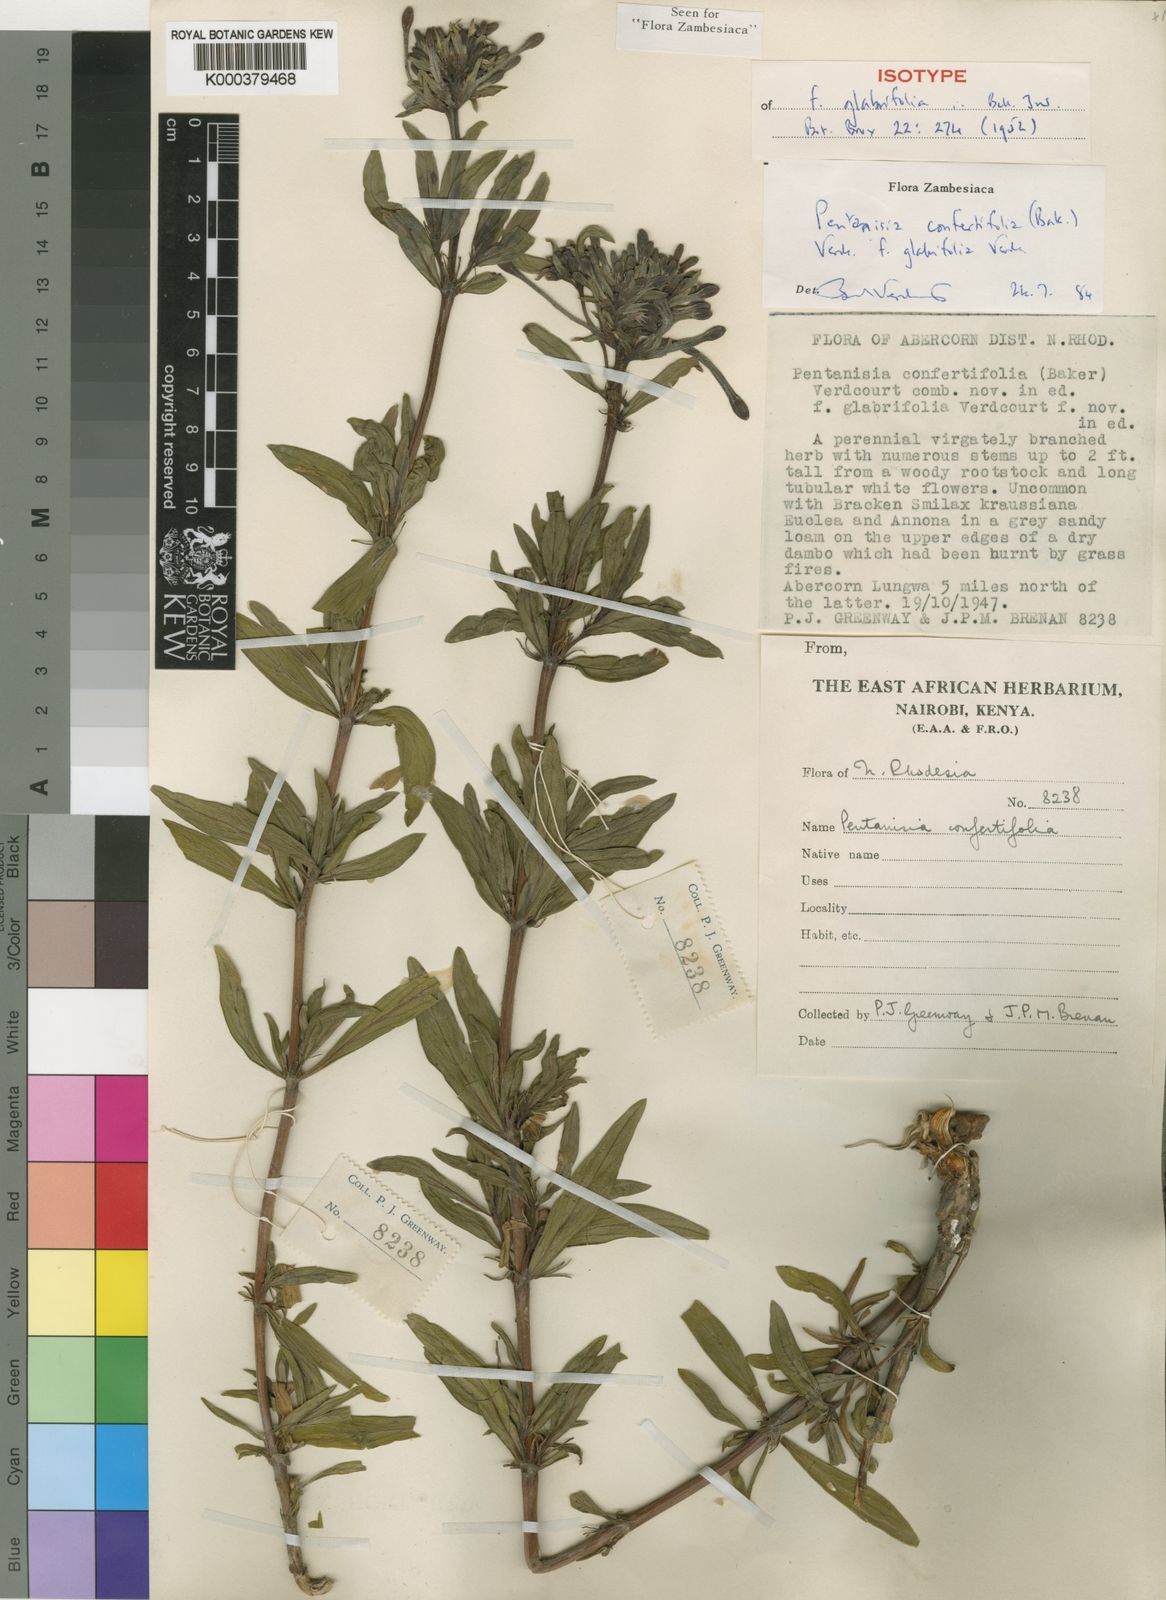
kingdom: Plantae
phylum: Tracheophyta
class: Magnoliopsida
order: Gentianales
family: Rubiaceae
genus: Pentanisia
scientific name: Pentanisia confertifolia
